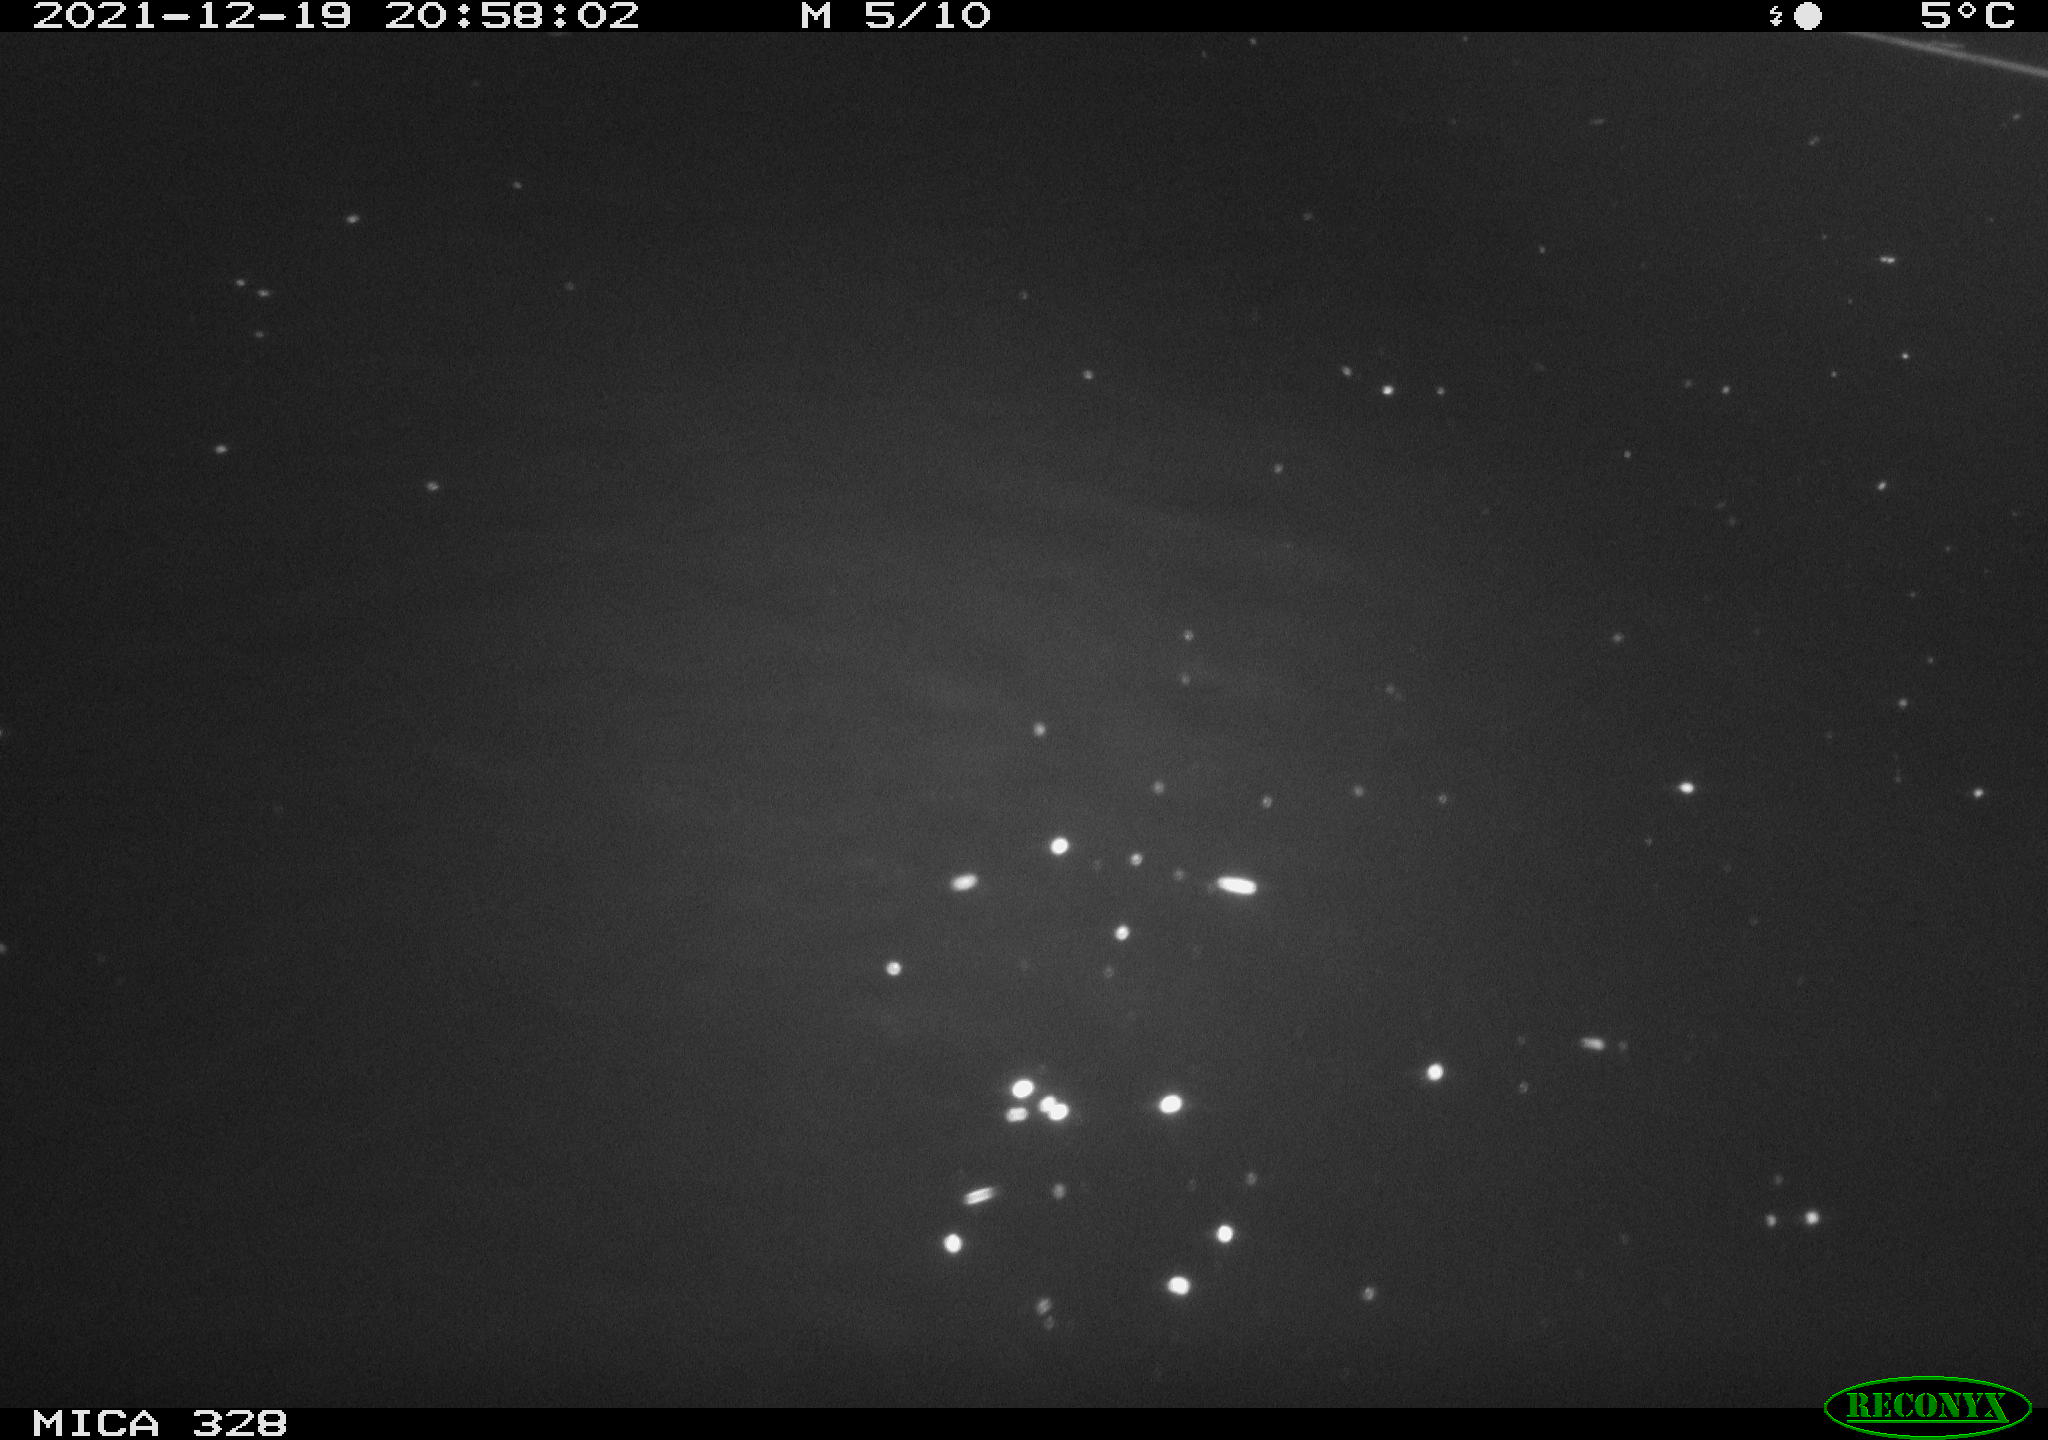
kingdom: Animalia
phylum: Chordata
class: Mammalia
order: Rodentia
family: Cricetidae
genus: Ondatra
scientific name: Ondatra zibethicus
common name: Muskrat
